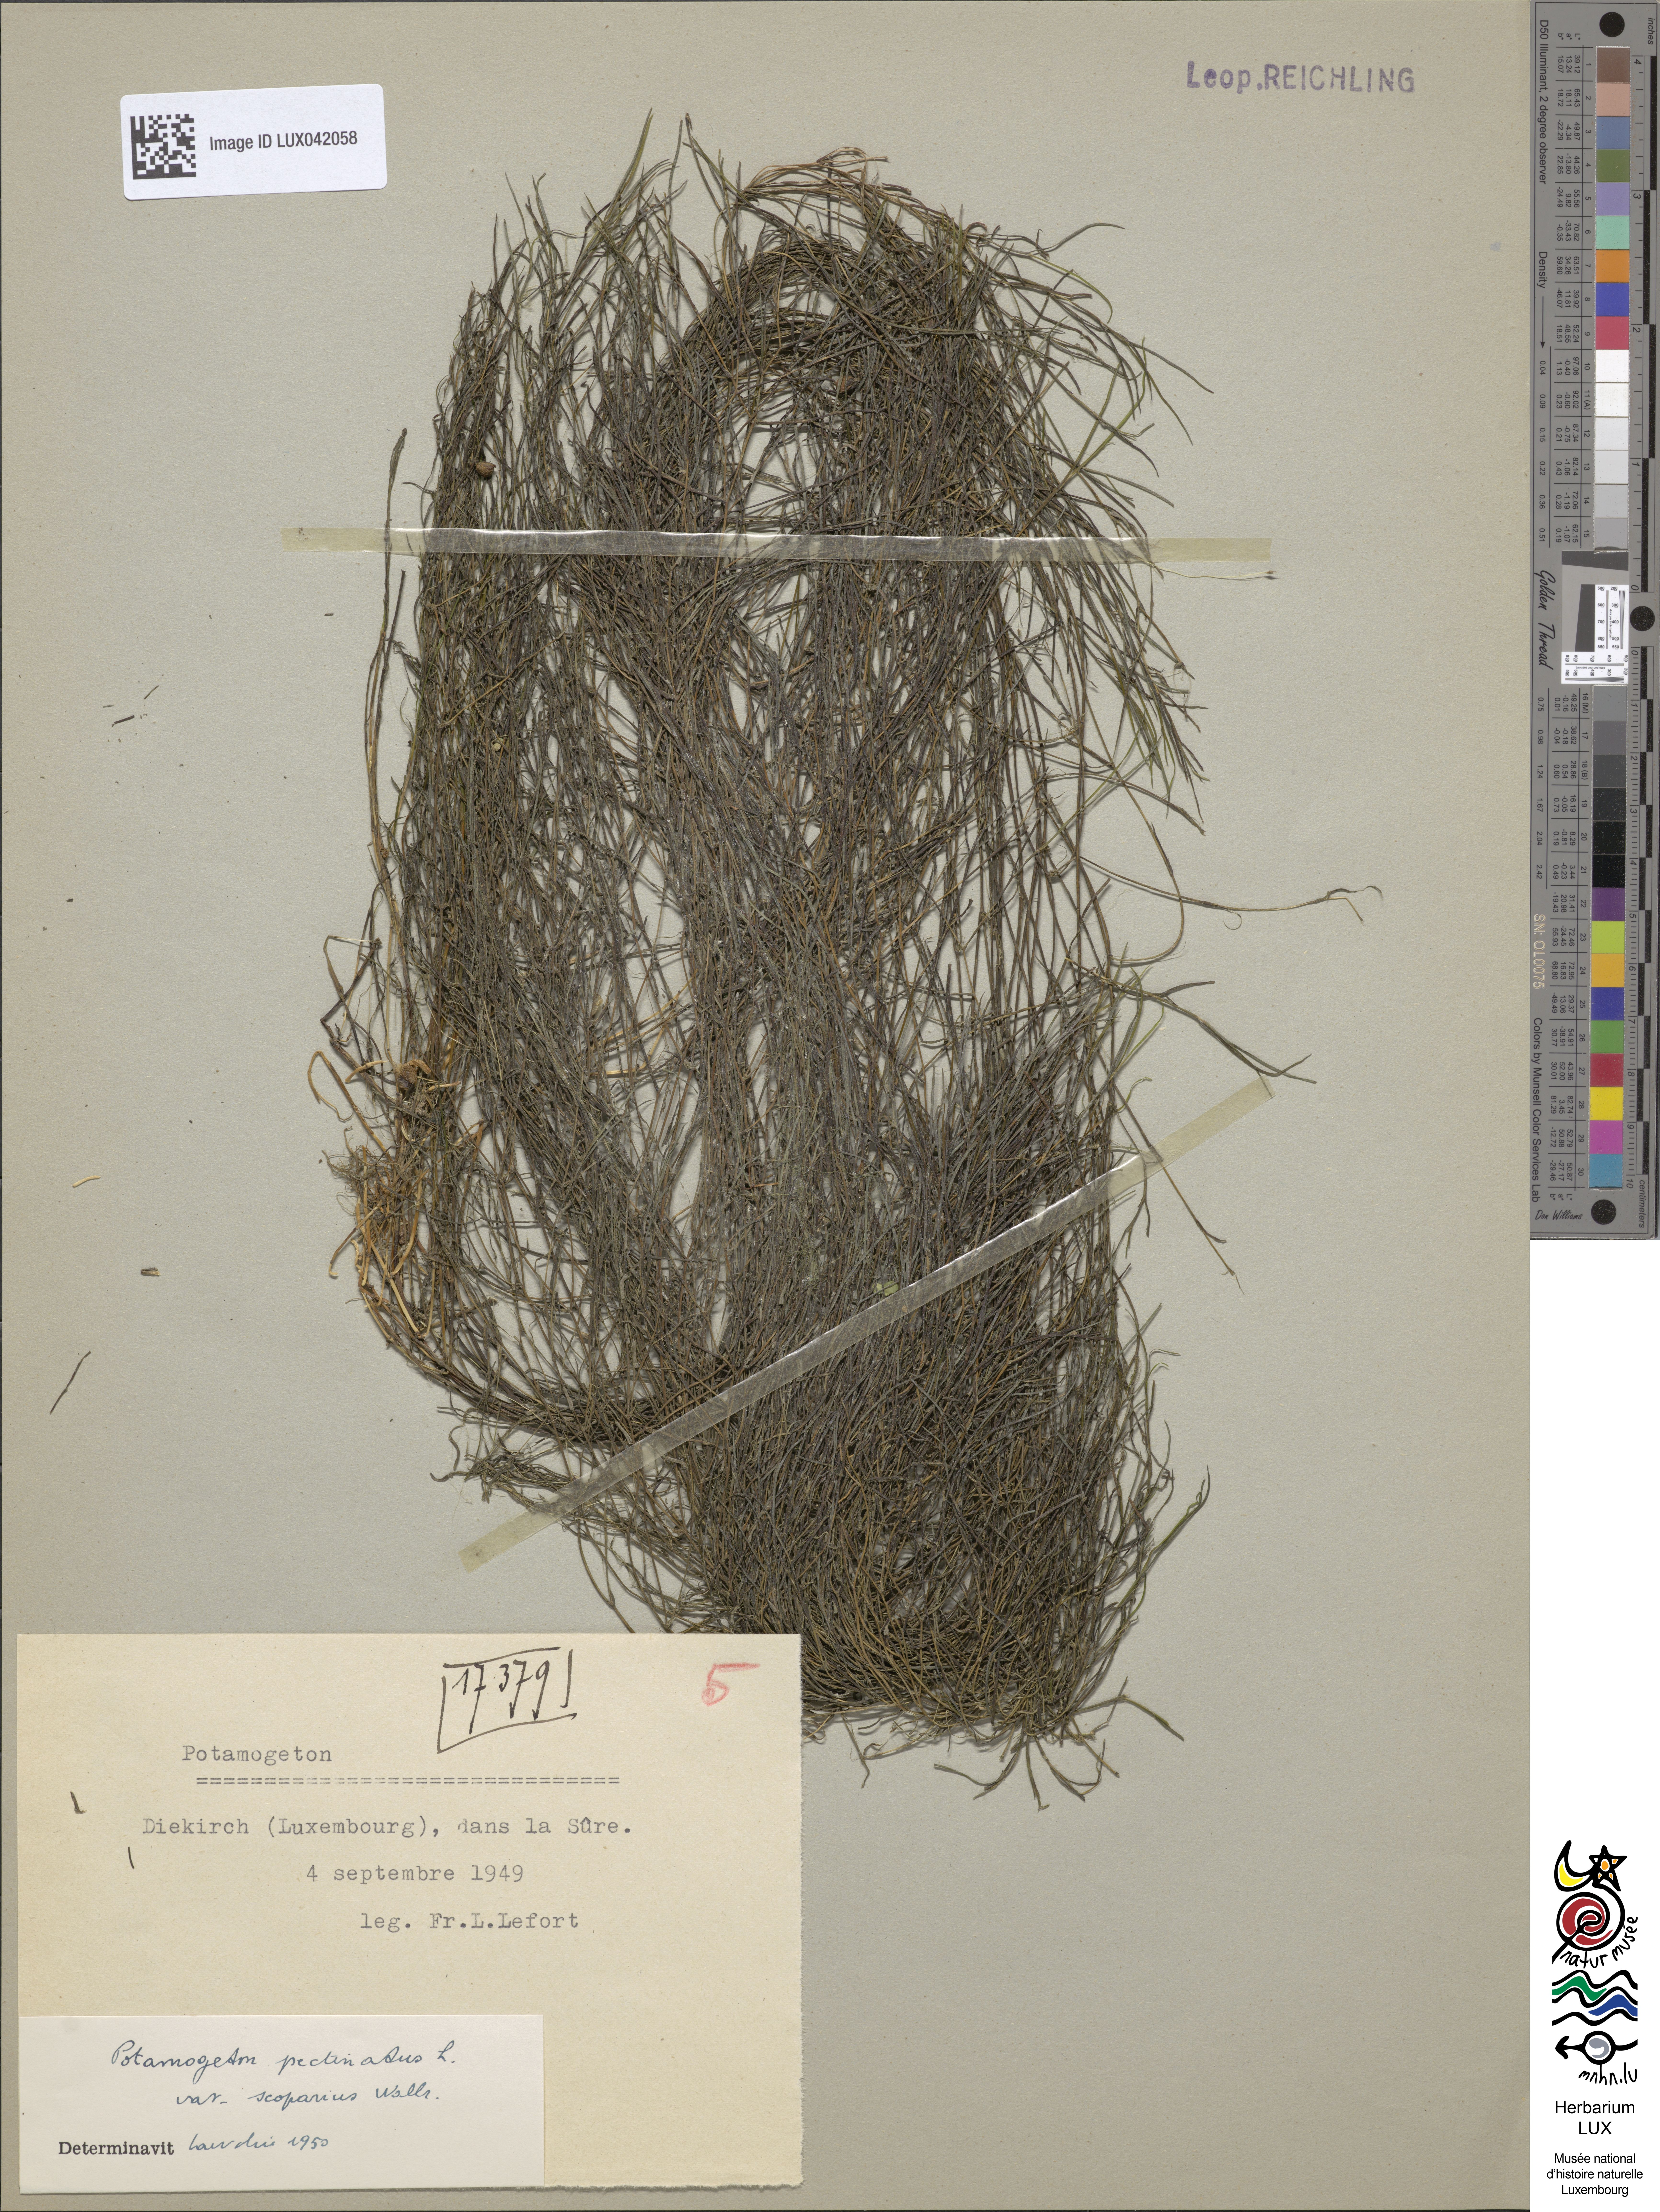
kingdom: Plantae
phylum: Tracheophyta
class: Liliopsida
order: Alismatales
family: Potamogetonaceae
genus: Stuckenia
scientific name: Stuckenia pectinata
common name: Sago pondweed
